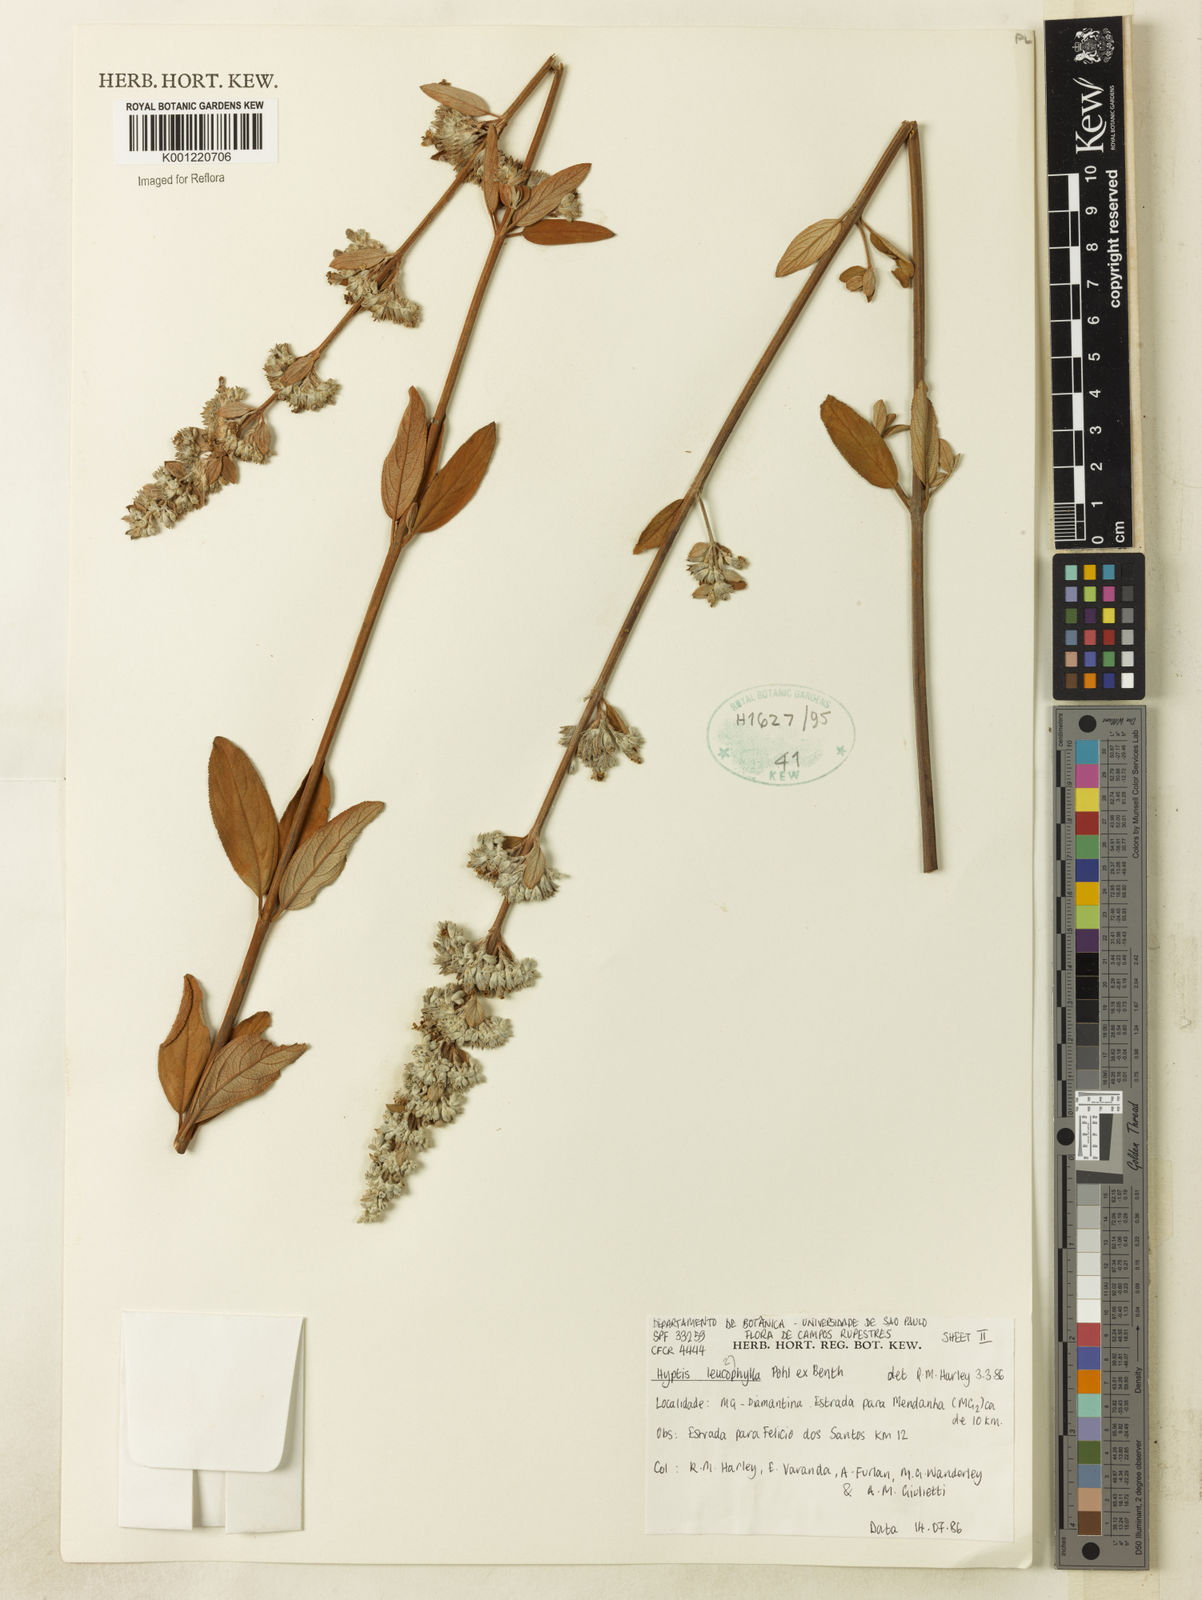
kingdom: Plantae
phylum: Tracheophyta
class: Magnoliopsida
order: Lamiales
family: Lamiaceae
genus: Hyptidendron
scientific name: Hyptidendron leucophyllum
